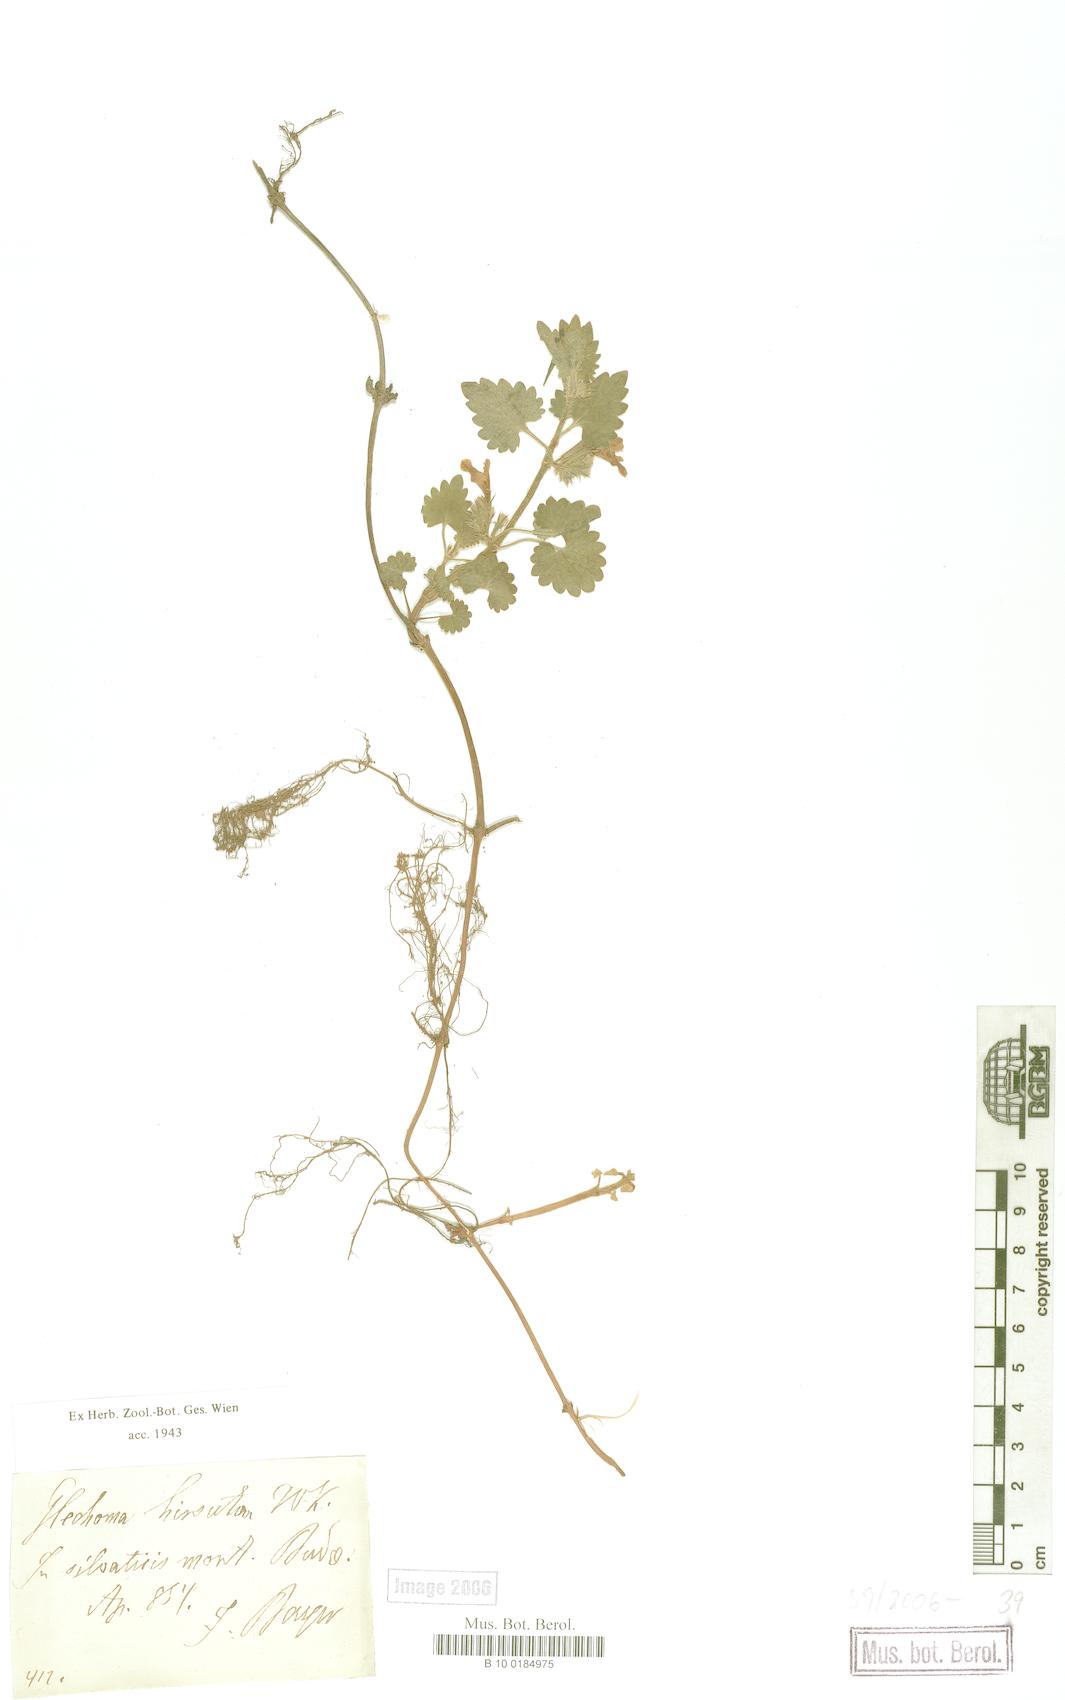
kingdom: Plantae
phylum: Tracheophyta
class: Magnoliopsida
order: Lamiales
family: Lamiaceae
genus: Glechoma
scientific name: Glechoma hirsuta
